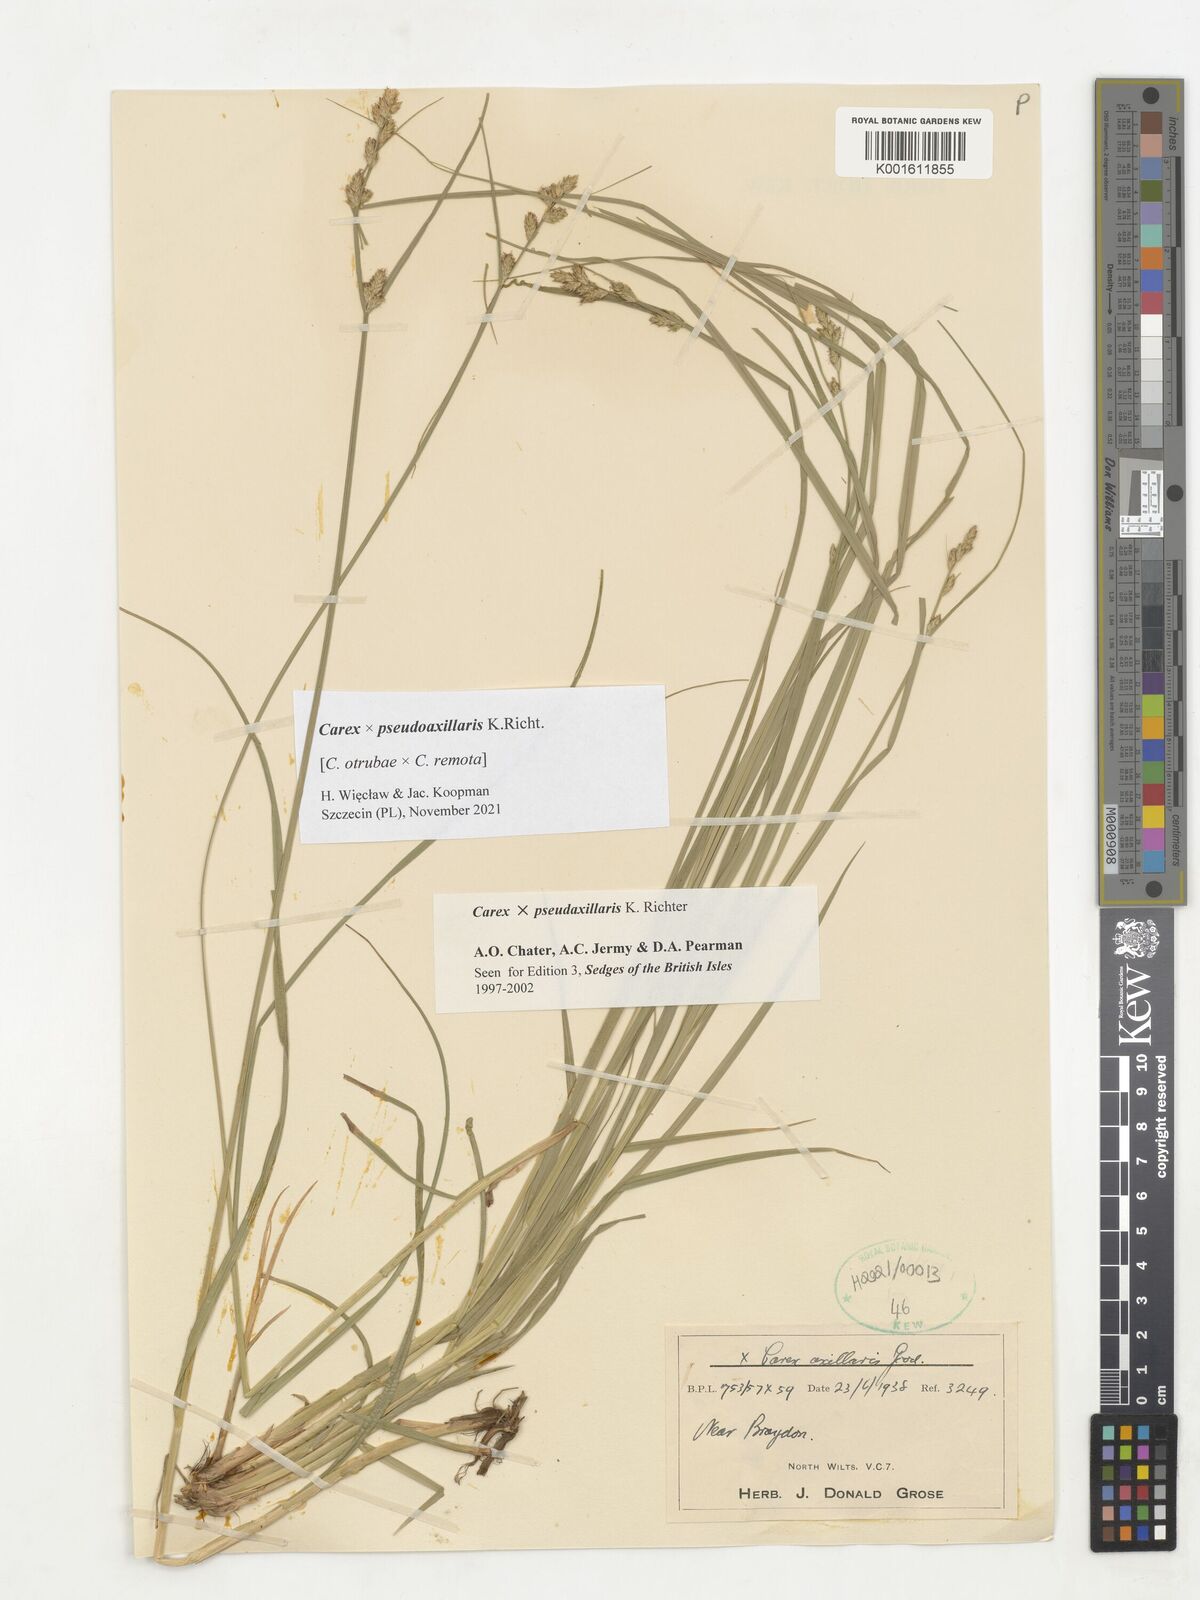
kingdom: Plantae
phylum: Tracheophyta
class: Liliopsida
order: Poales
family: Cyperaceae
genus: Carex
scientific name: Carex pseudoaxillaris
